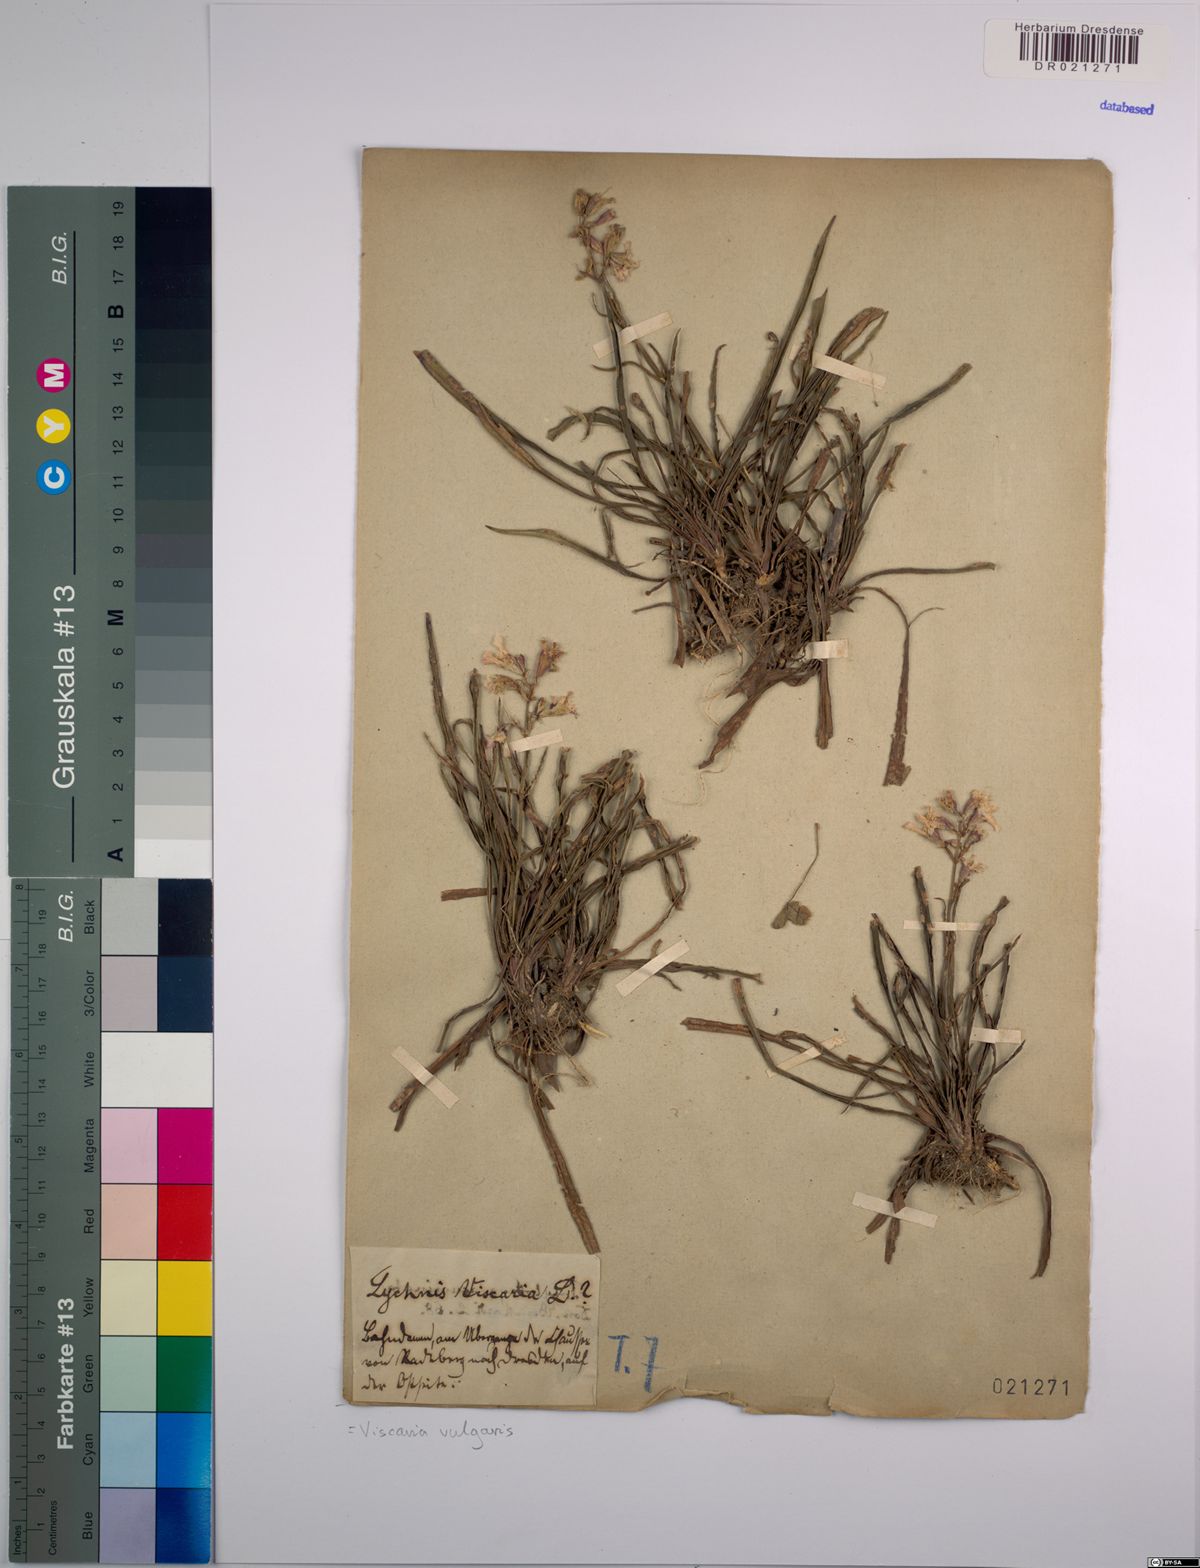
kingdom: Plantae
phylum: Tracheophyta
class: Magnoliopsida
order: Caryophyllales
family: Caryophyllaceae
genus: Viscaria
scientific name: Viscaria vulgaris
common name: Clammy campion
